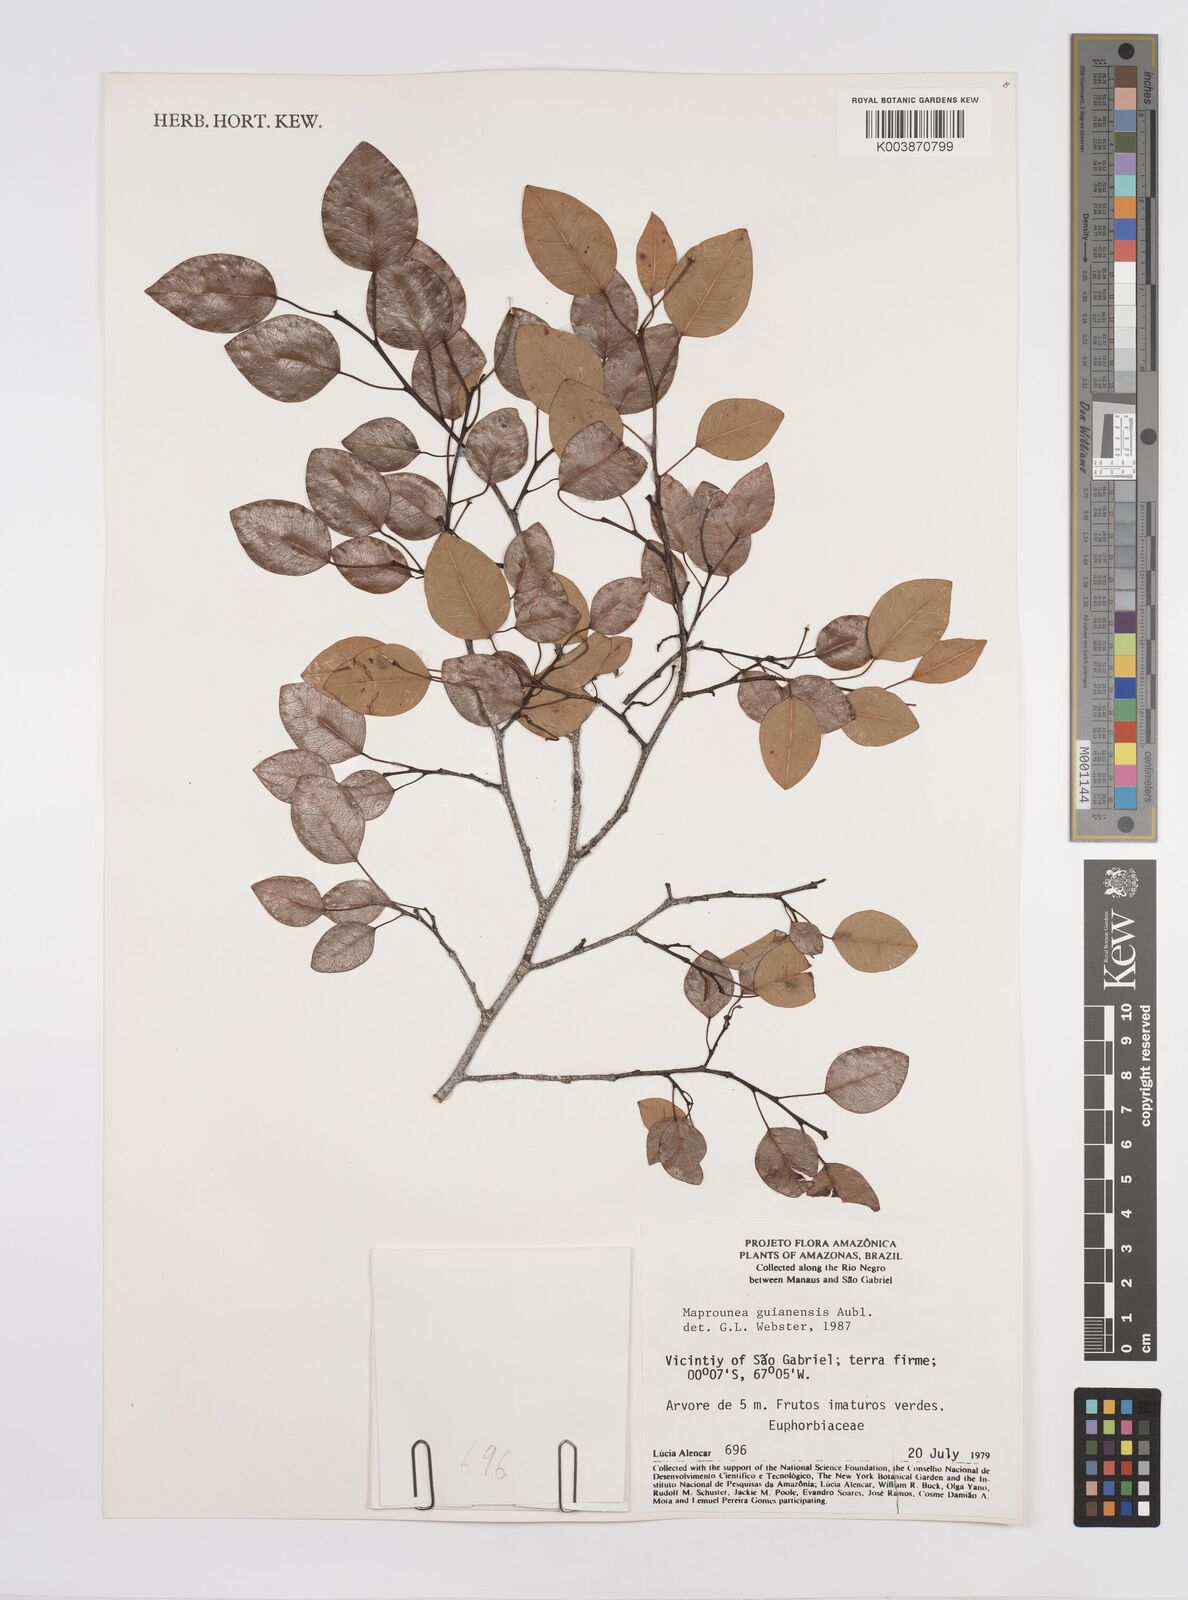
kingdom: Plantae
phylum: Tracheophyta
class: Magnoliopsida
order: Malpighiales
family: Euphorbiaceae
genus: Maprounea
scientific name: Maprounea guianensis
